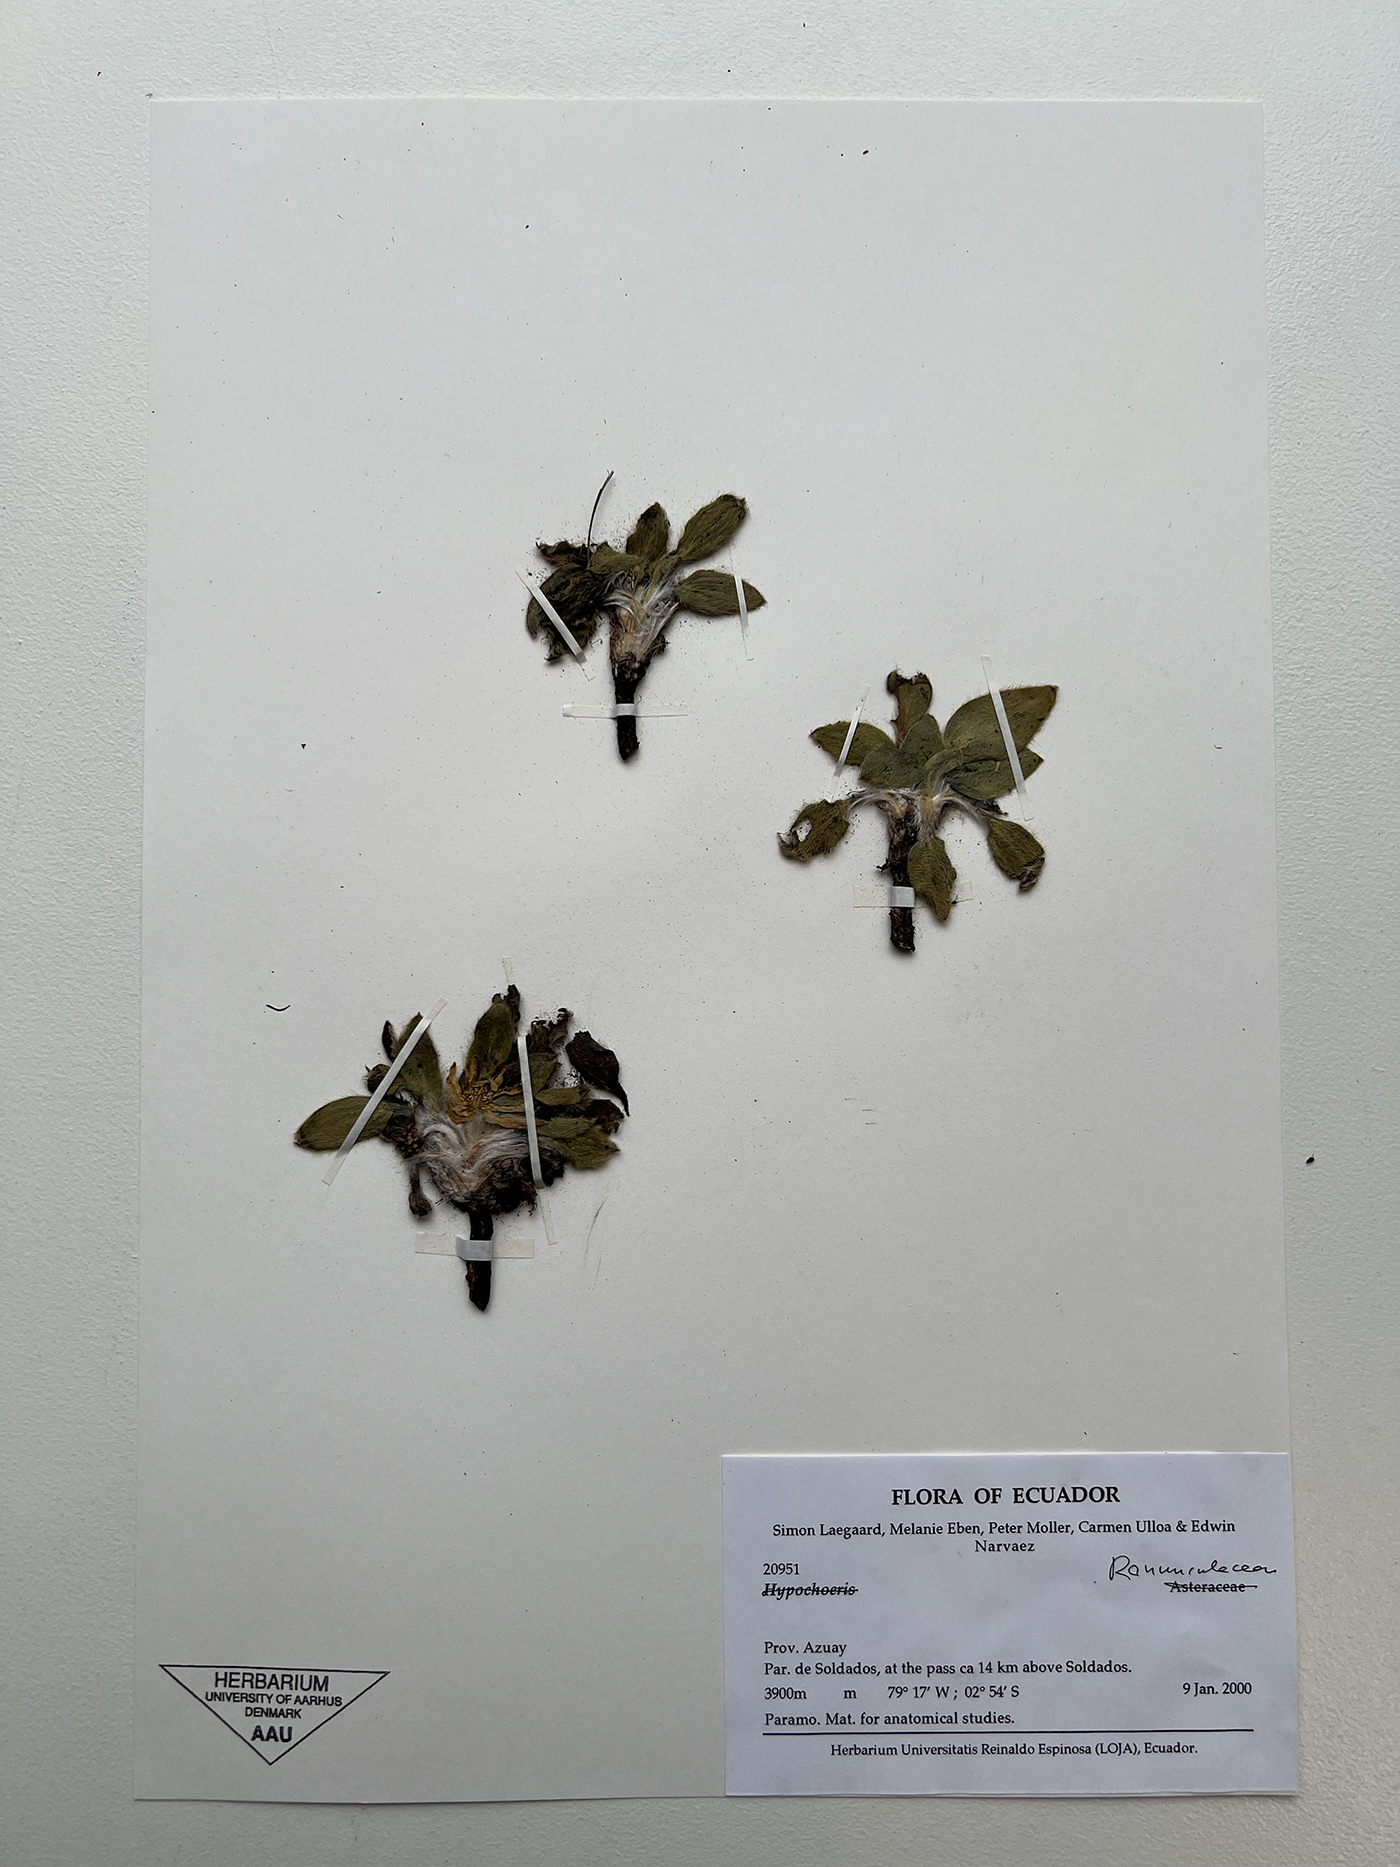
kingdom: Plantae
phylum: Tracheophyta
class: Magnoliopsida
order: Ranunculales
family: Ranunculaceae
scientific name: Ranunculaceae
